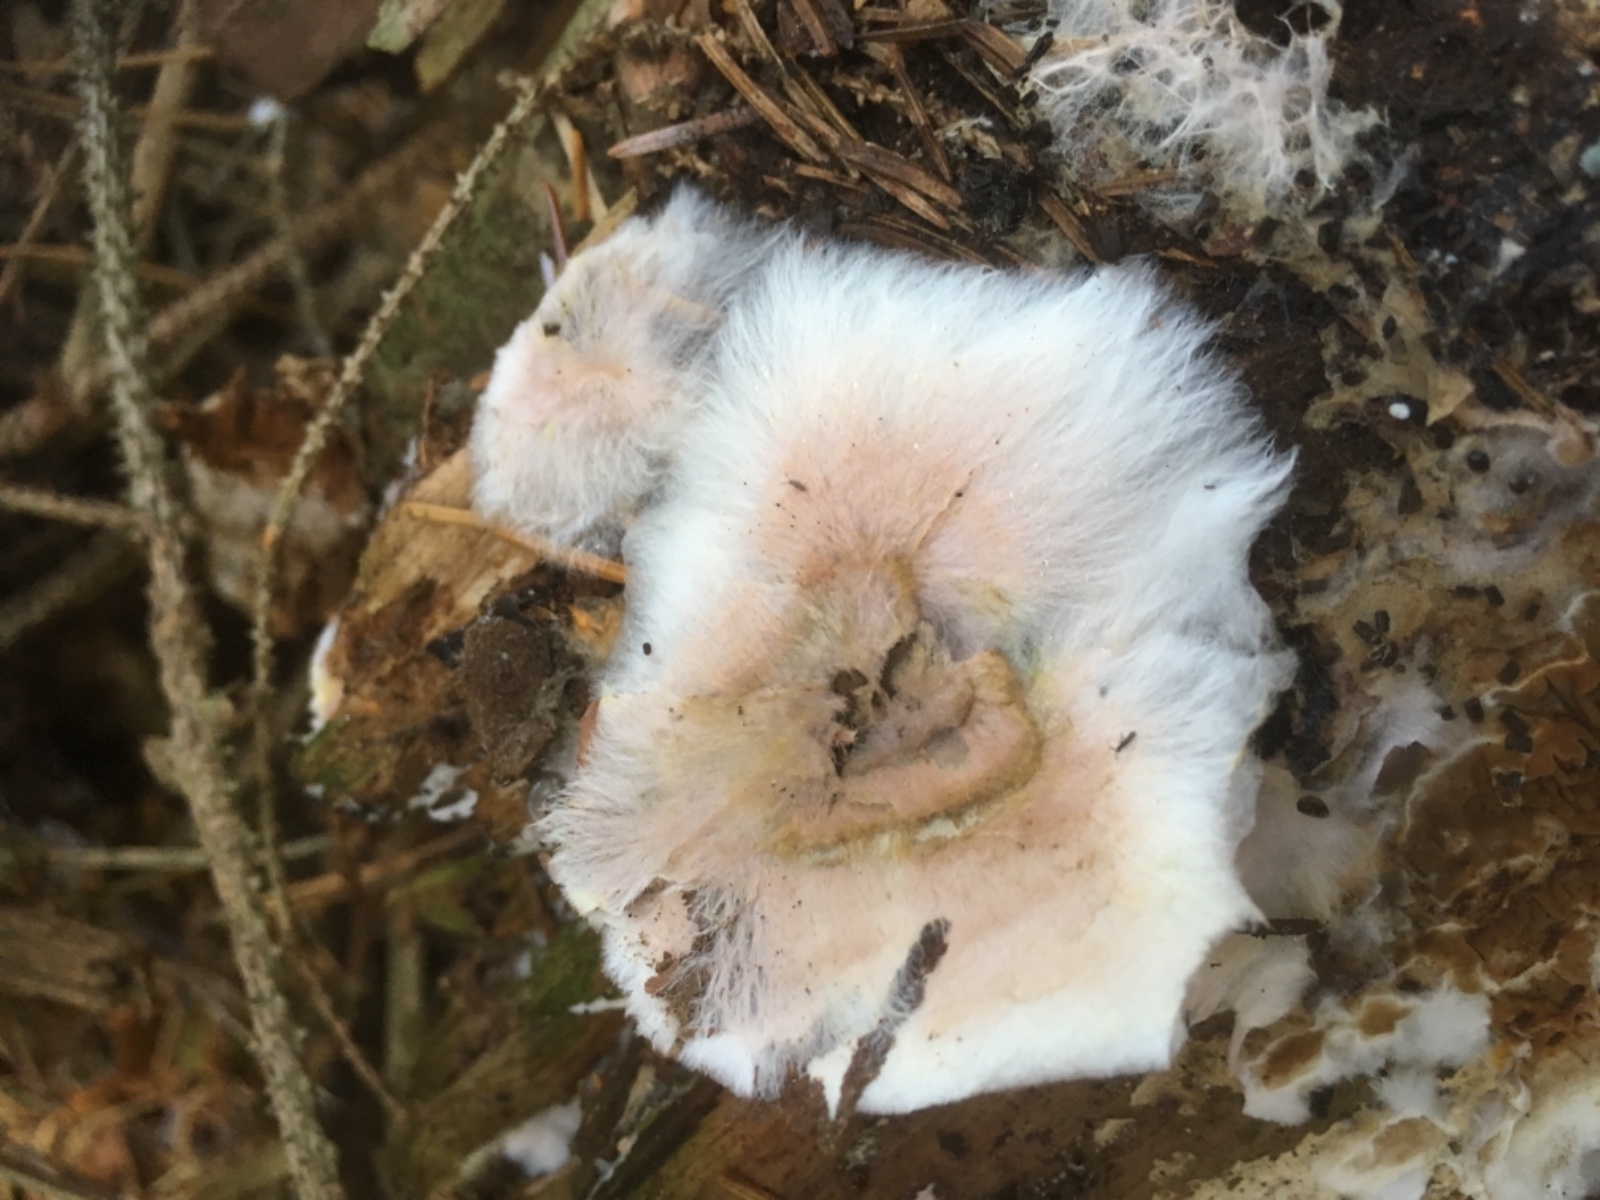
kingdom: Fungi
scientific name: Fungi
